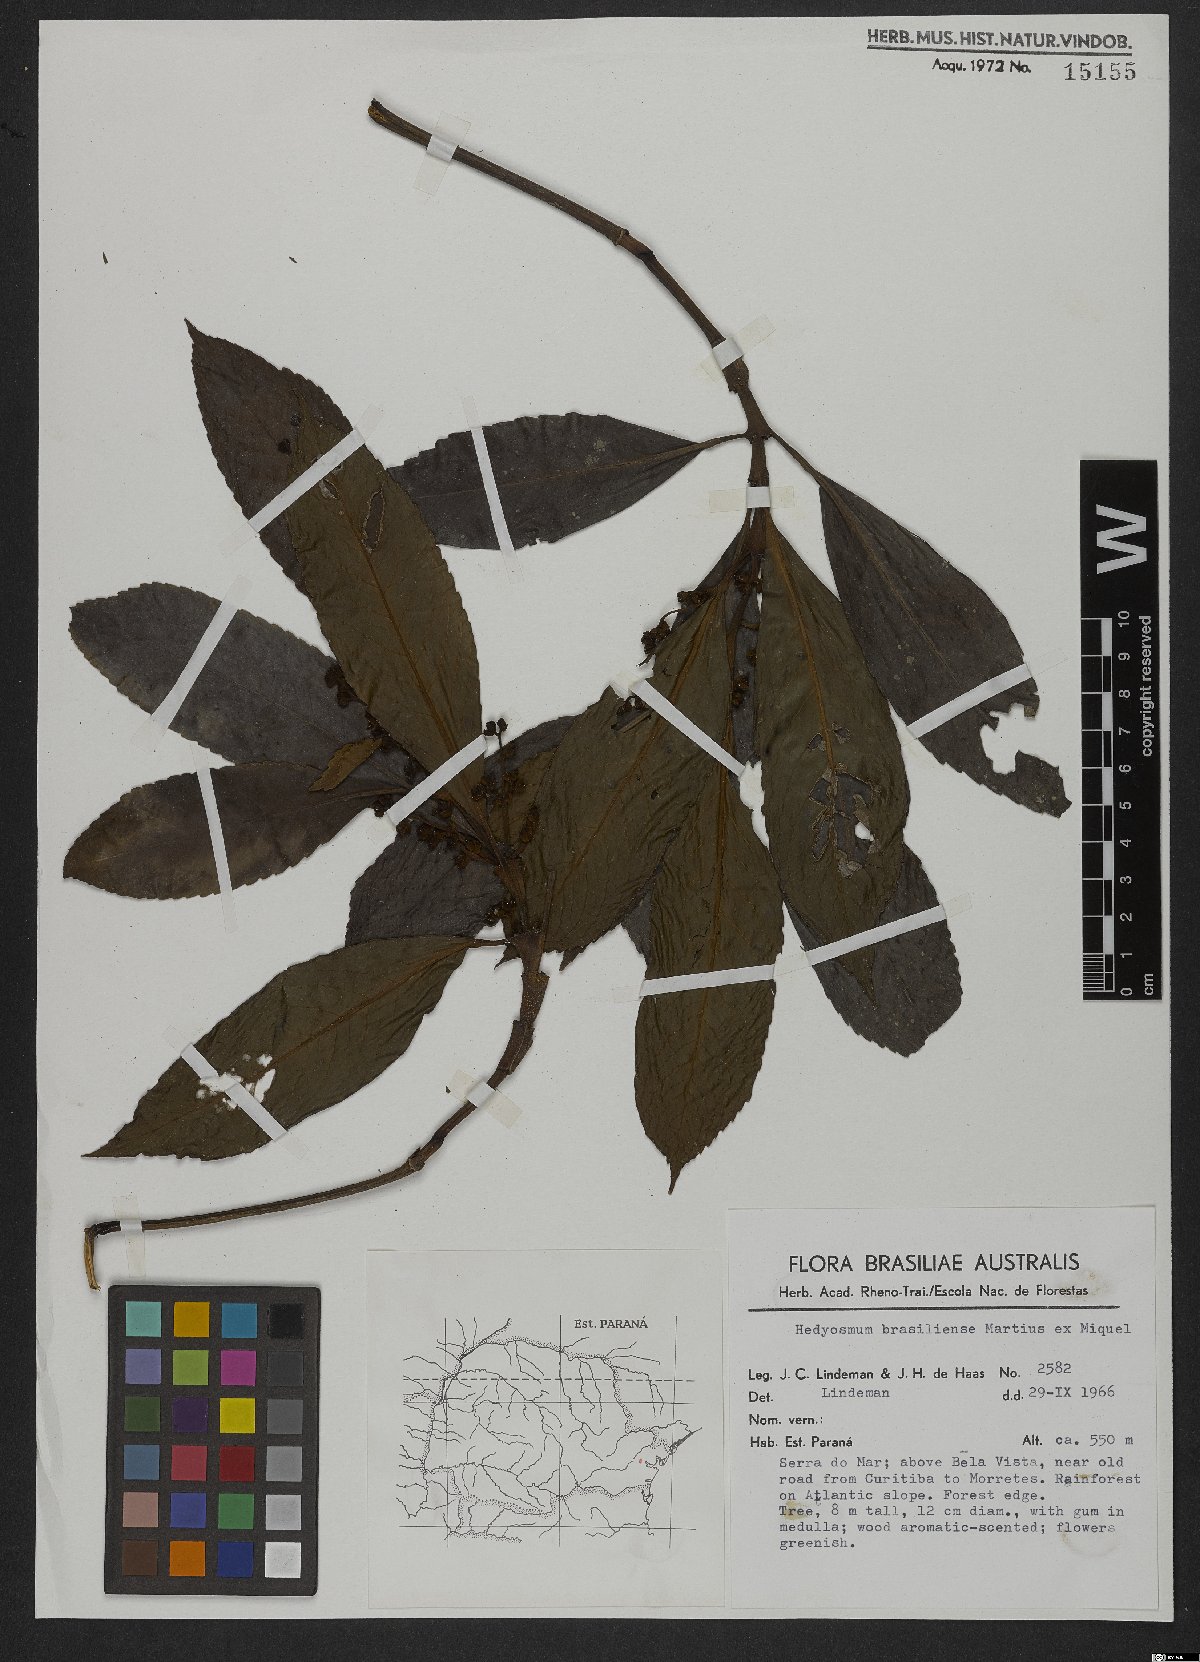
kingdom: Plantae
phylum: Tracheophyta
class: Magnoliopsida
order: Chloranthales
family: Chloranthaceae
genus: Hedyosmum
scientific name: Hedyosmum brasiliense
